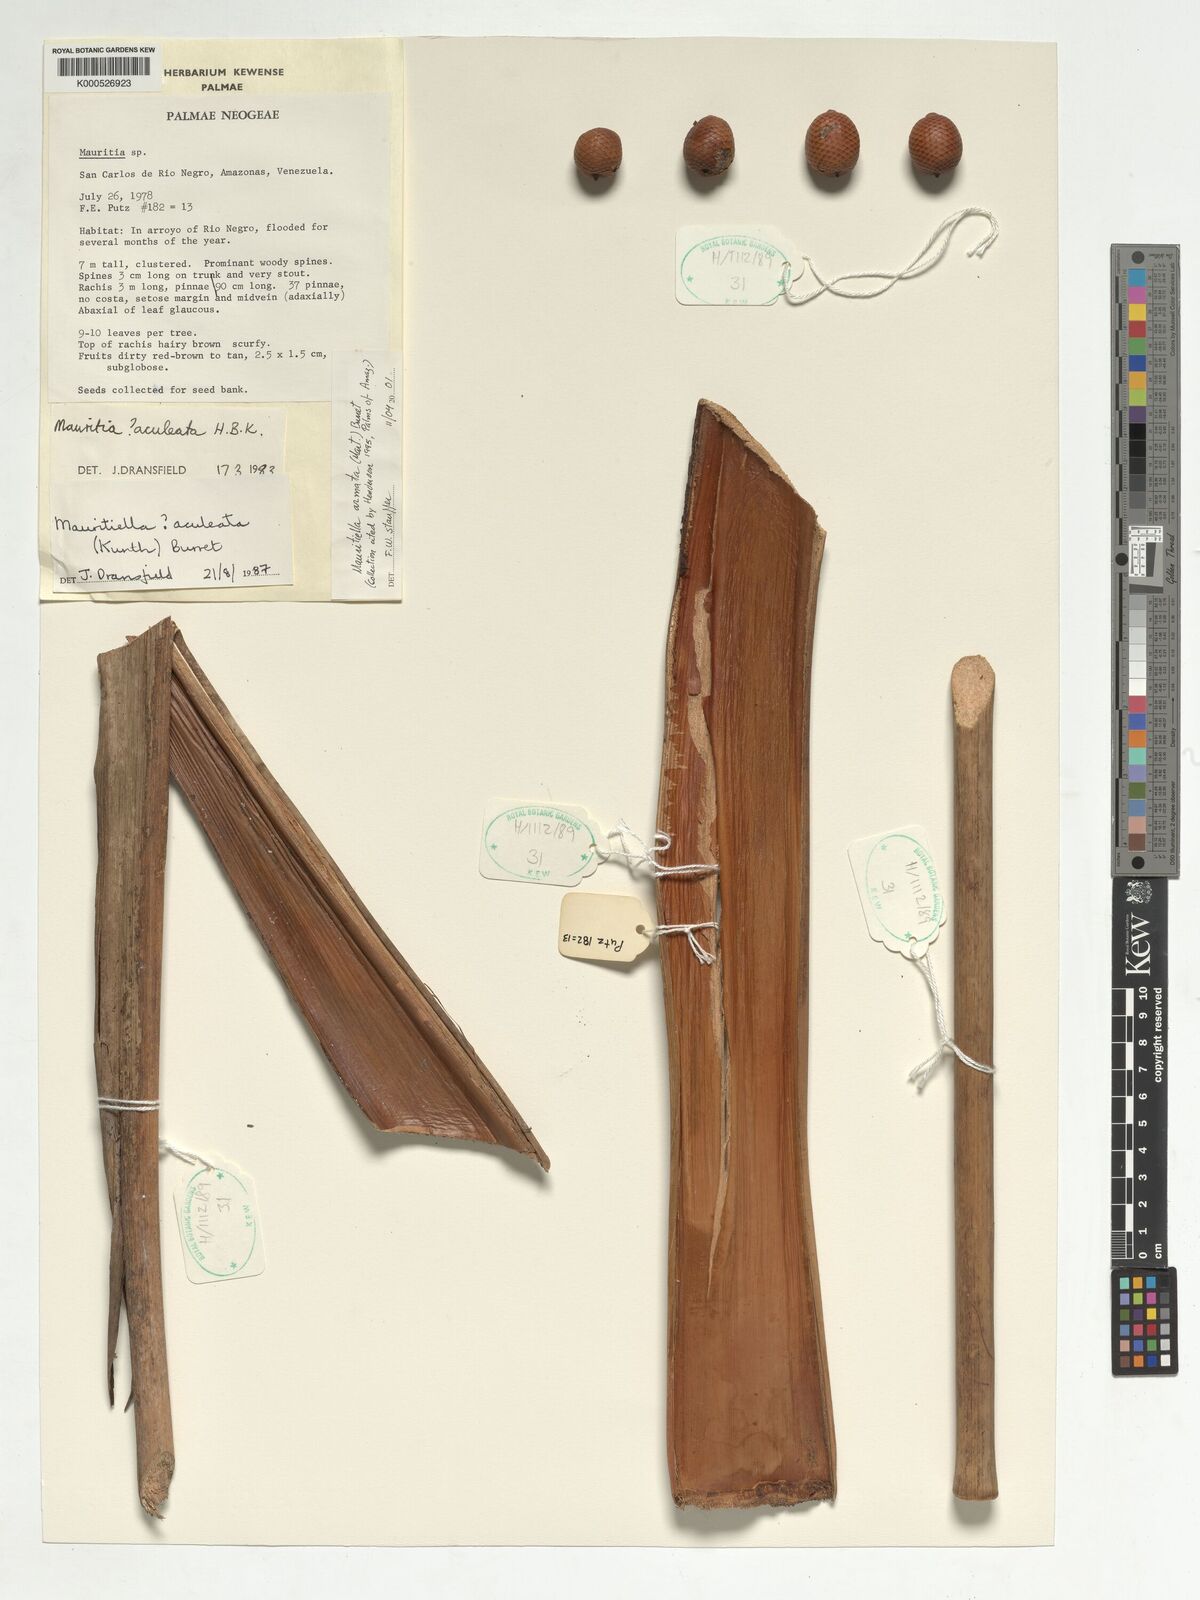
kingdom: Plantae
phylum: Tracheophyta
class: Liliopsida
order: Arecales
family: Arecaceae
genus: Mauritiella
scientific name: Mauritiella armata
